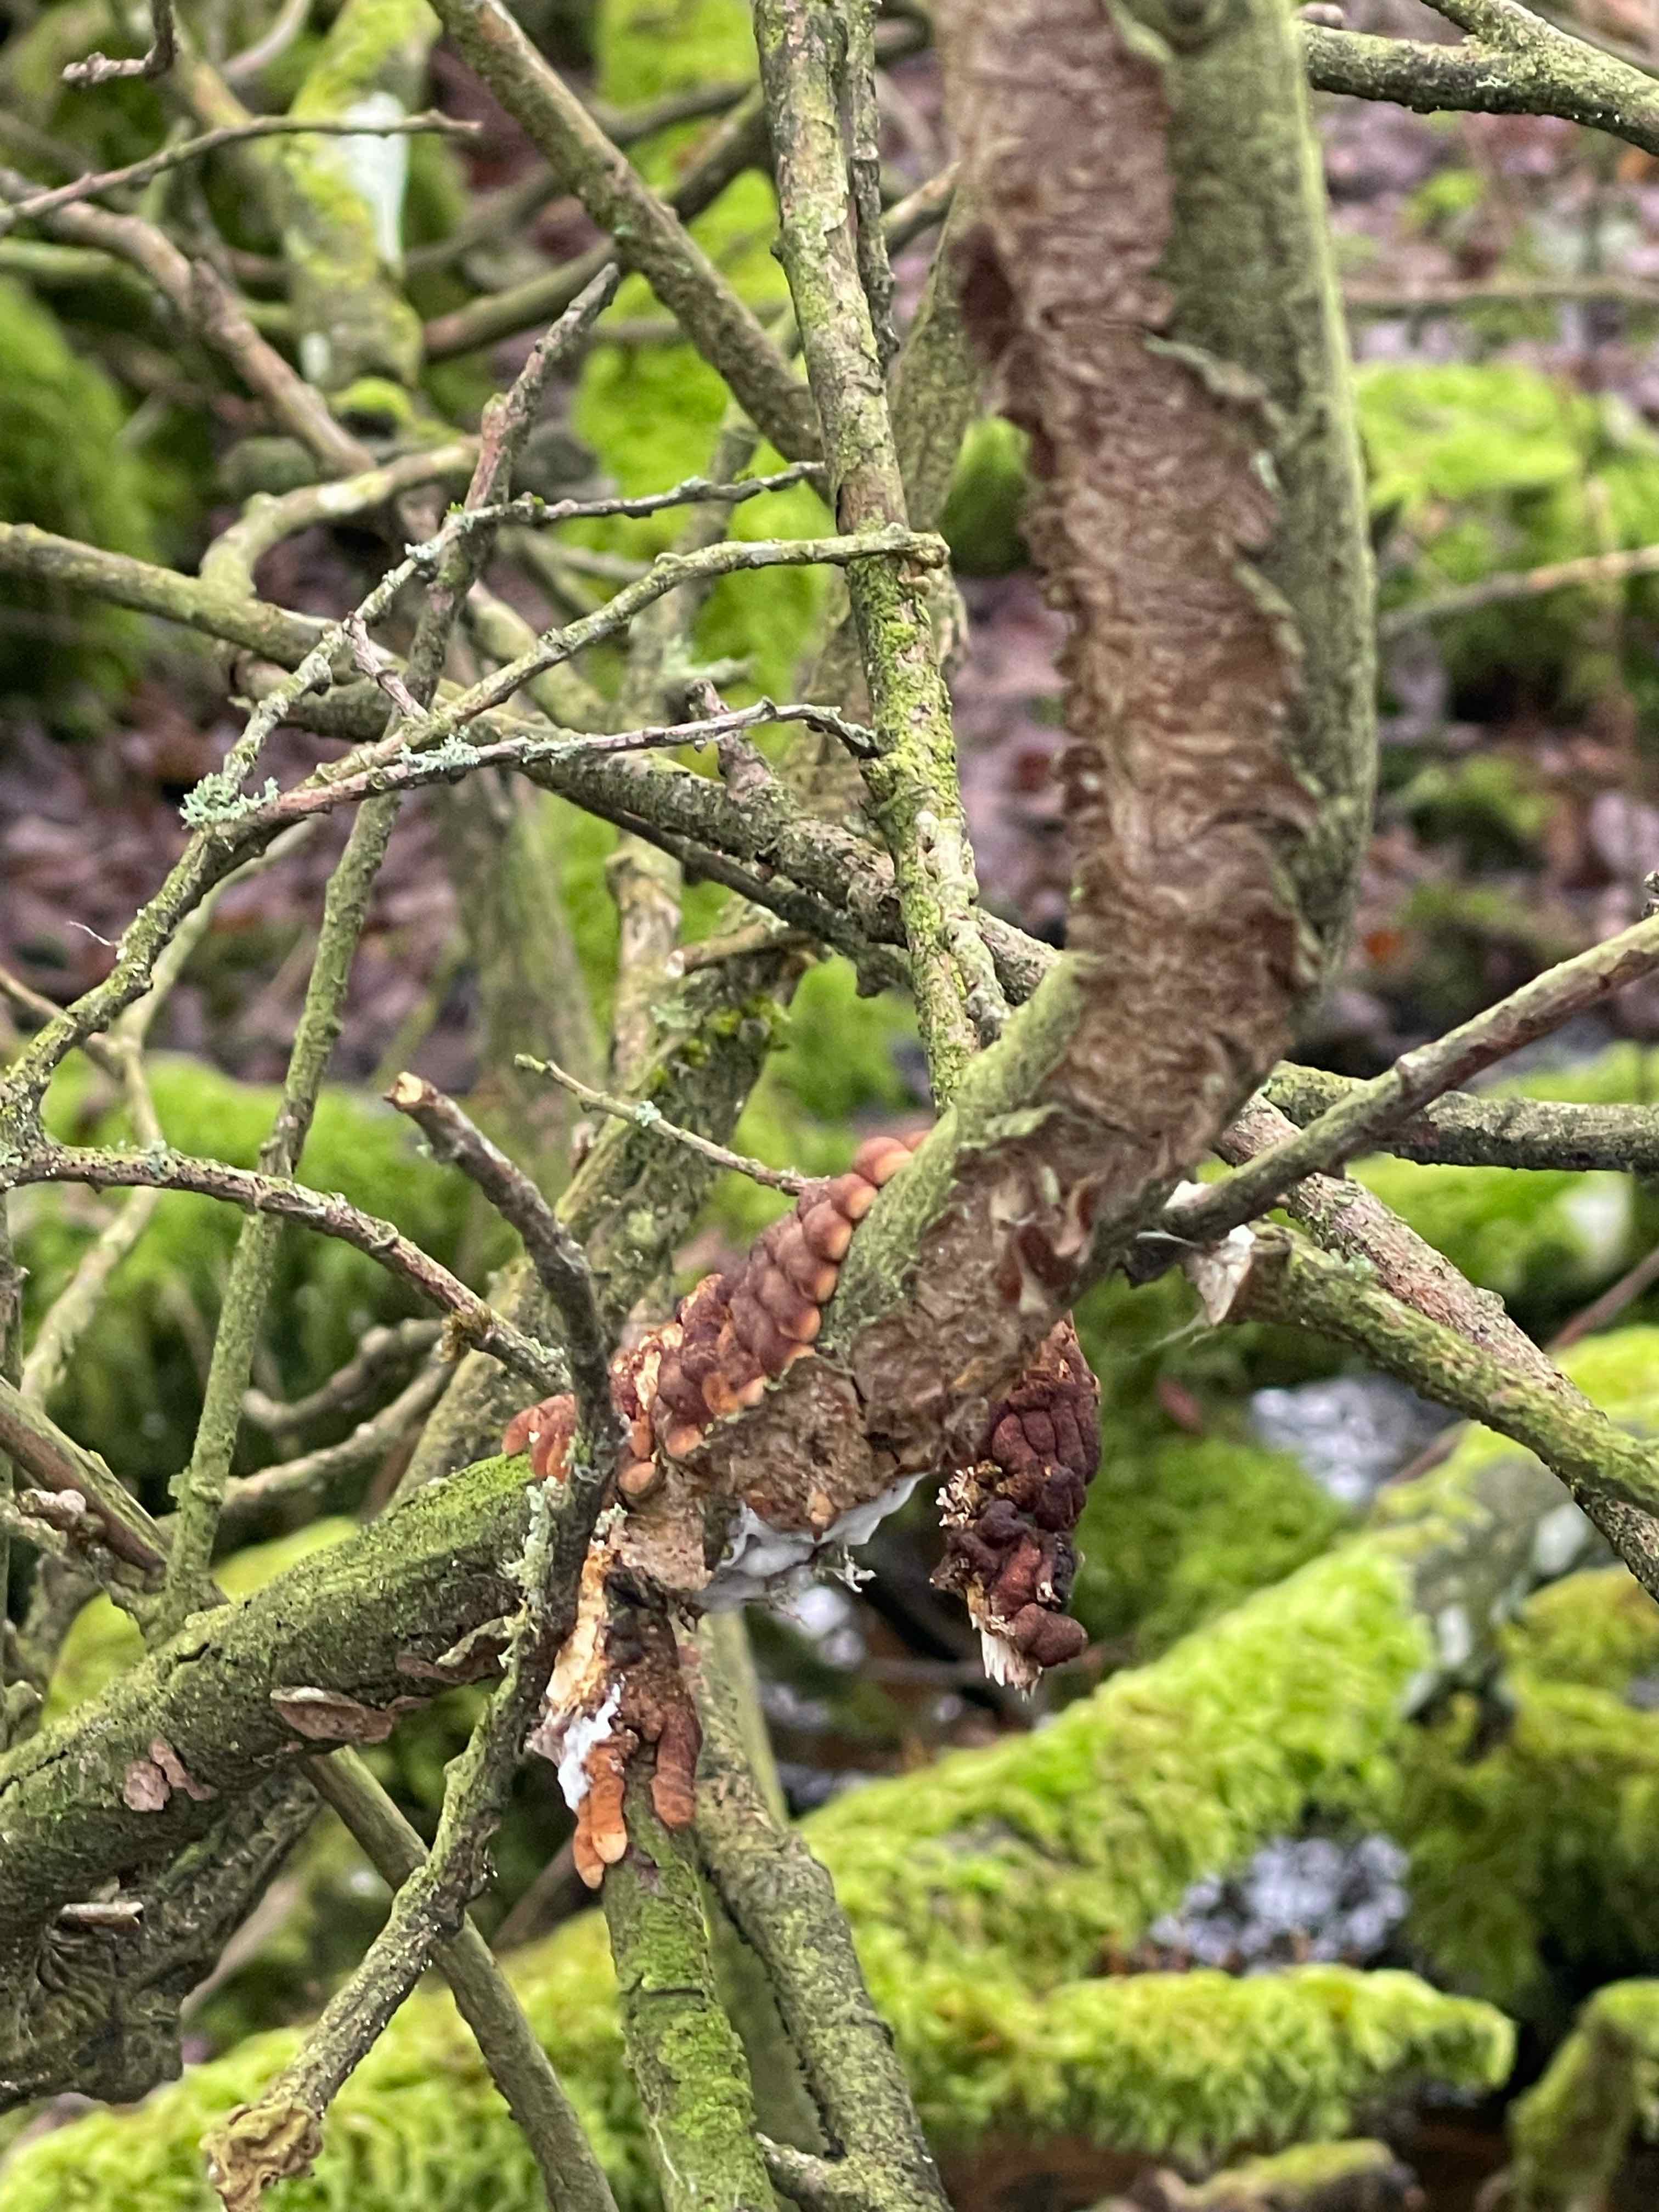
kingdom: Fungi
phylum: Basidiomycota
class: Agaricomycetes
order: Hymenochaetales
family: Hymenochaetaceae
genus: Hydnoporia
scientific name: Hydnoporia tabacina
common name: tobaksbrun ruslædersvamp
